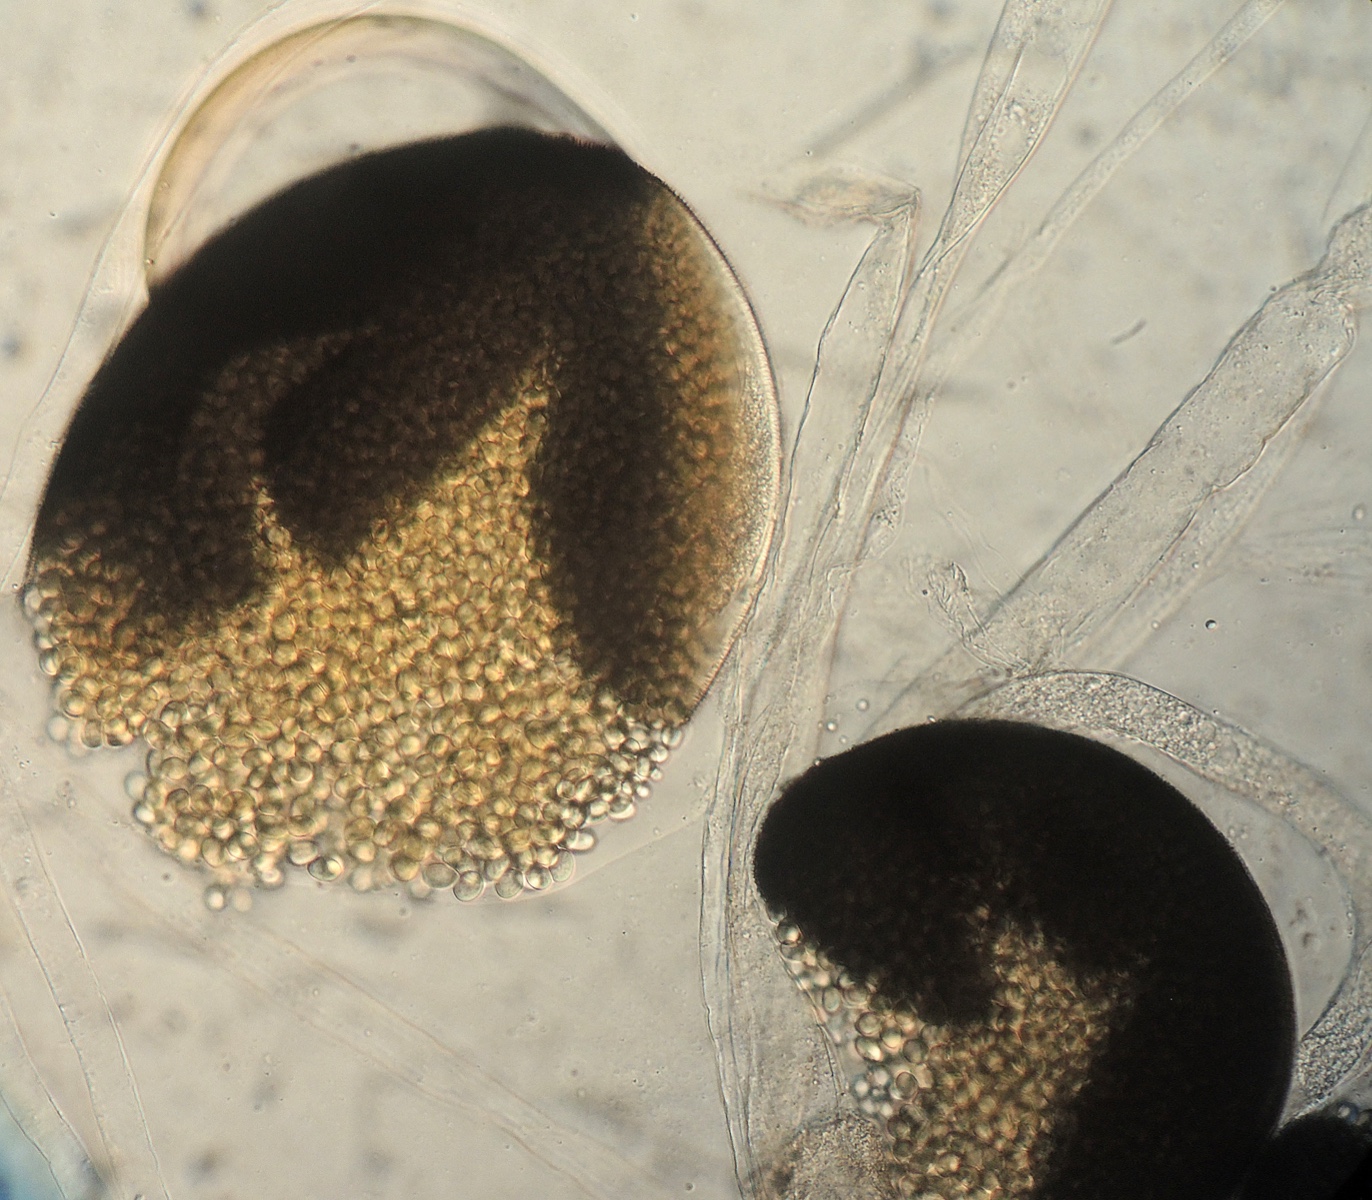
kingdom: Fungi
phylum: Mucoromycota
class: Mucoromycetes
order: Mucorales
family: Mucoraceae
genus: Pilaira
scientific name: Pilaira anomala
